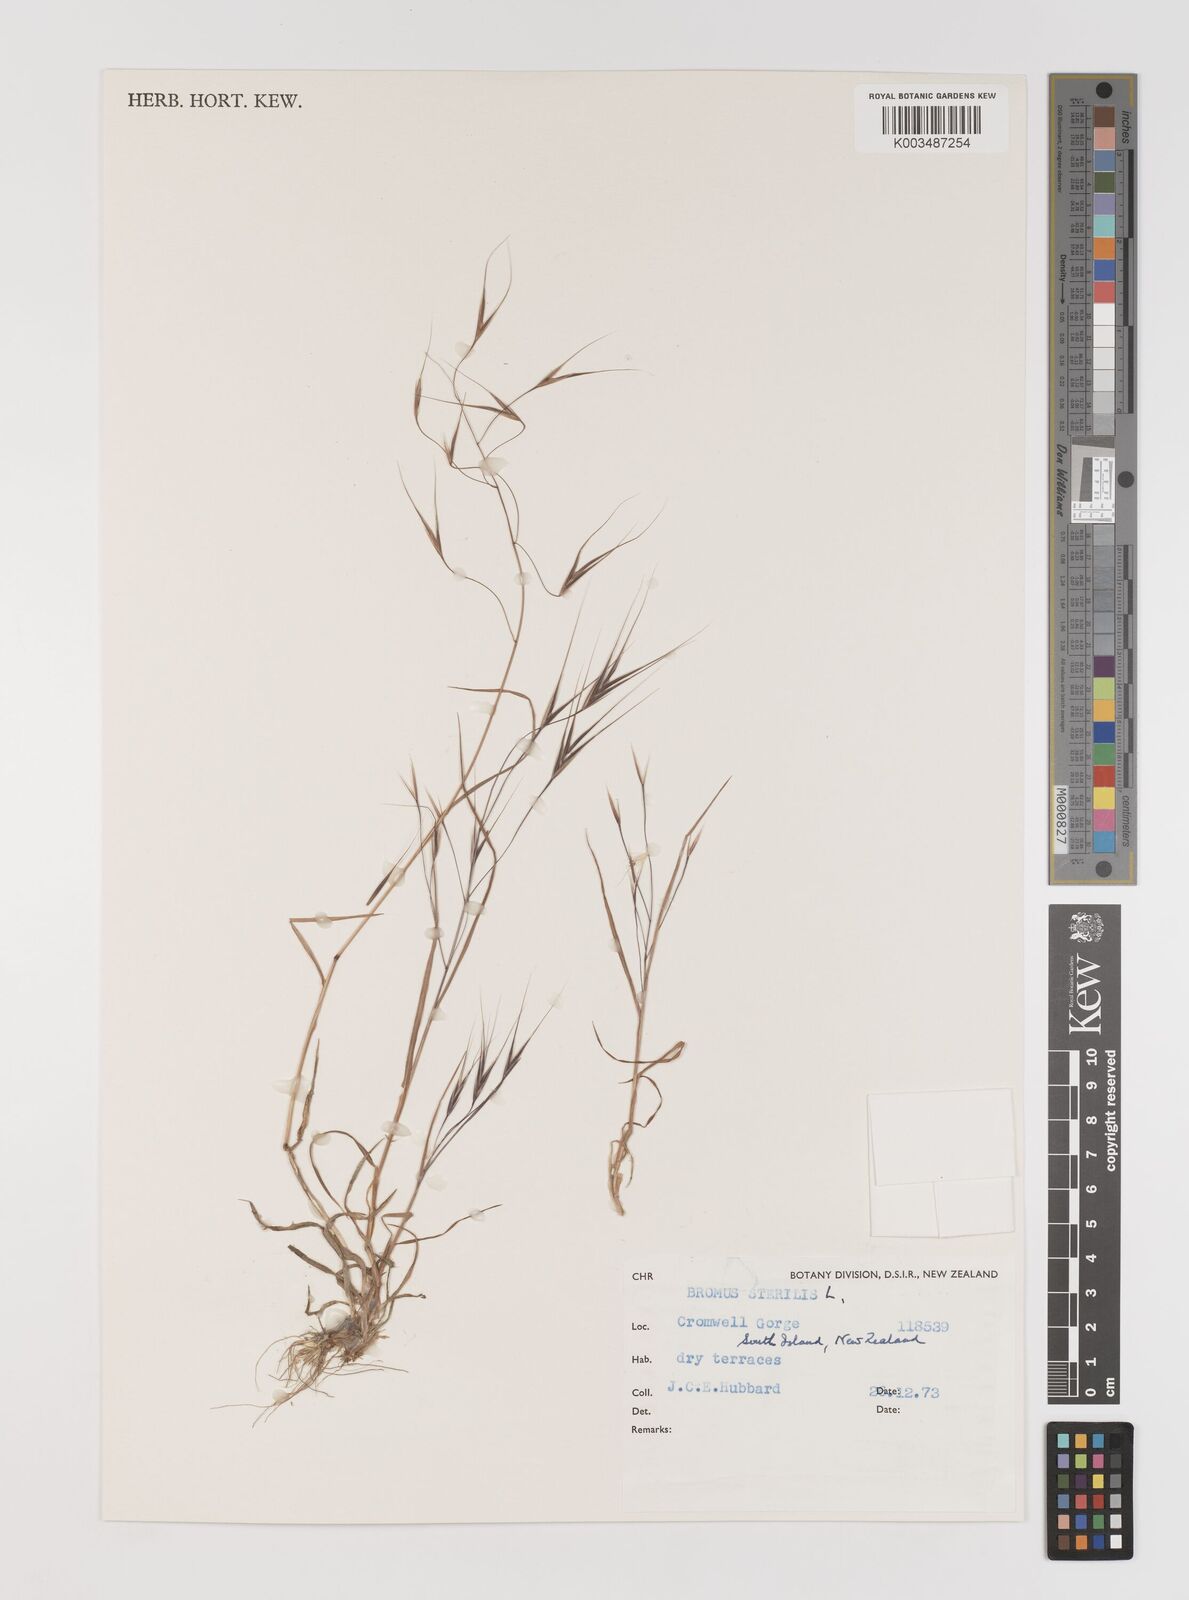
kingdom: Plantae
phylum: Tracheophyta
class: Liliopsida
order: Poales
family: Poaceae
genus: Bromus
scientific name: Bromus sterilis
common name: Poverty brome
